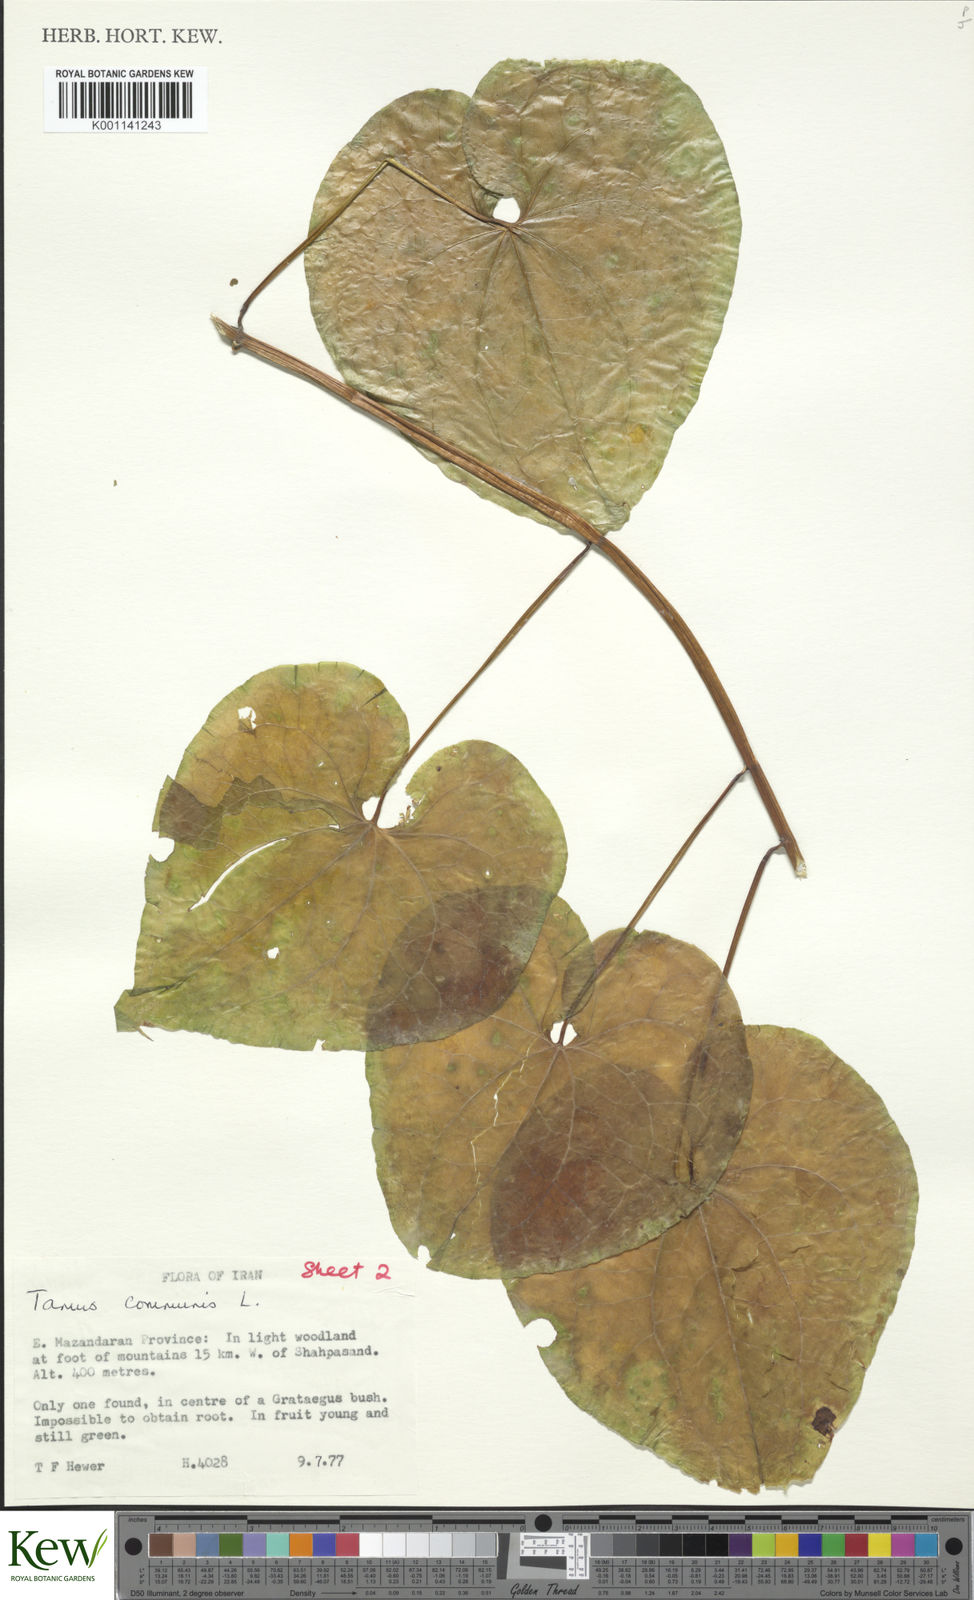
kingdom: Plantae
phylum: Tracheophyta
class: Liliopsida
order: Dioscoreales
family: Dioscoreaceae
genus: Dioscorea
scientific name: Dioscorea communis
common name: Black-bindweed
